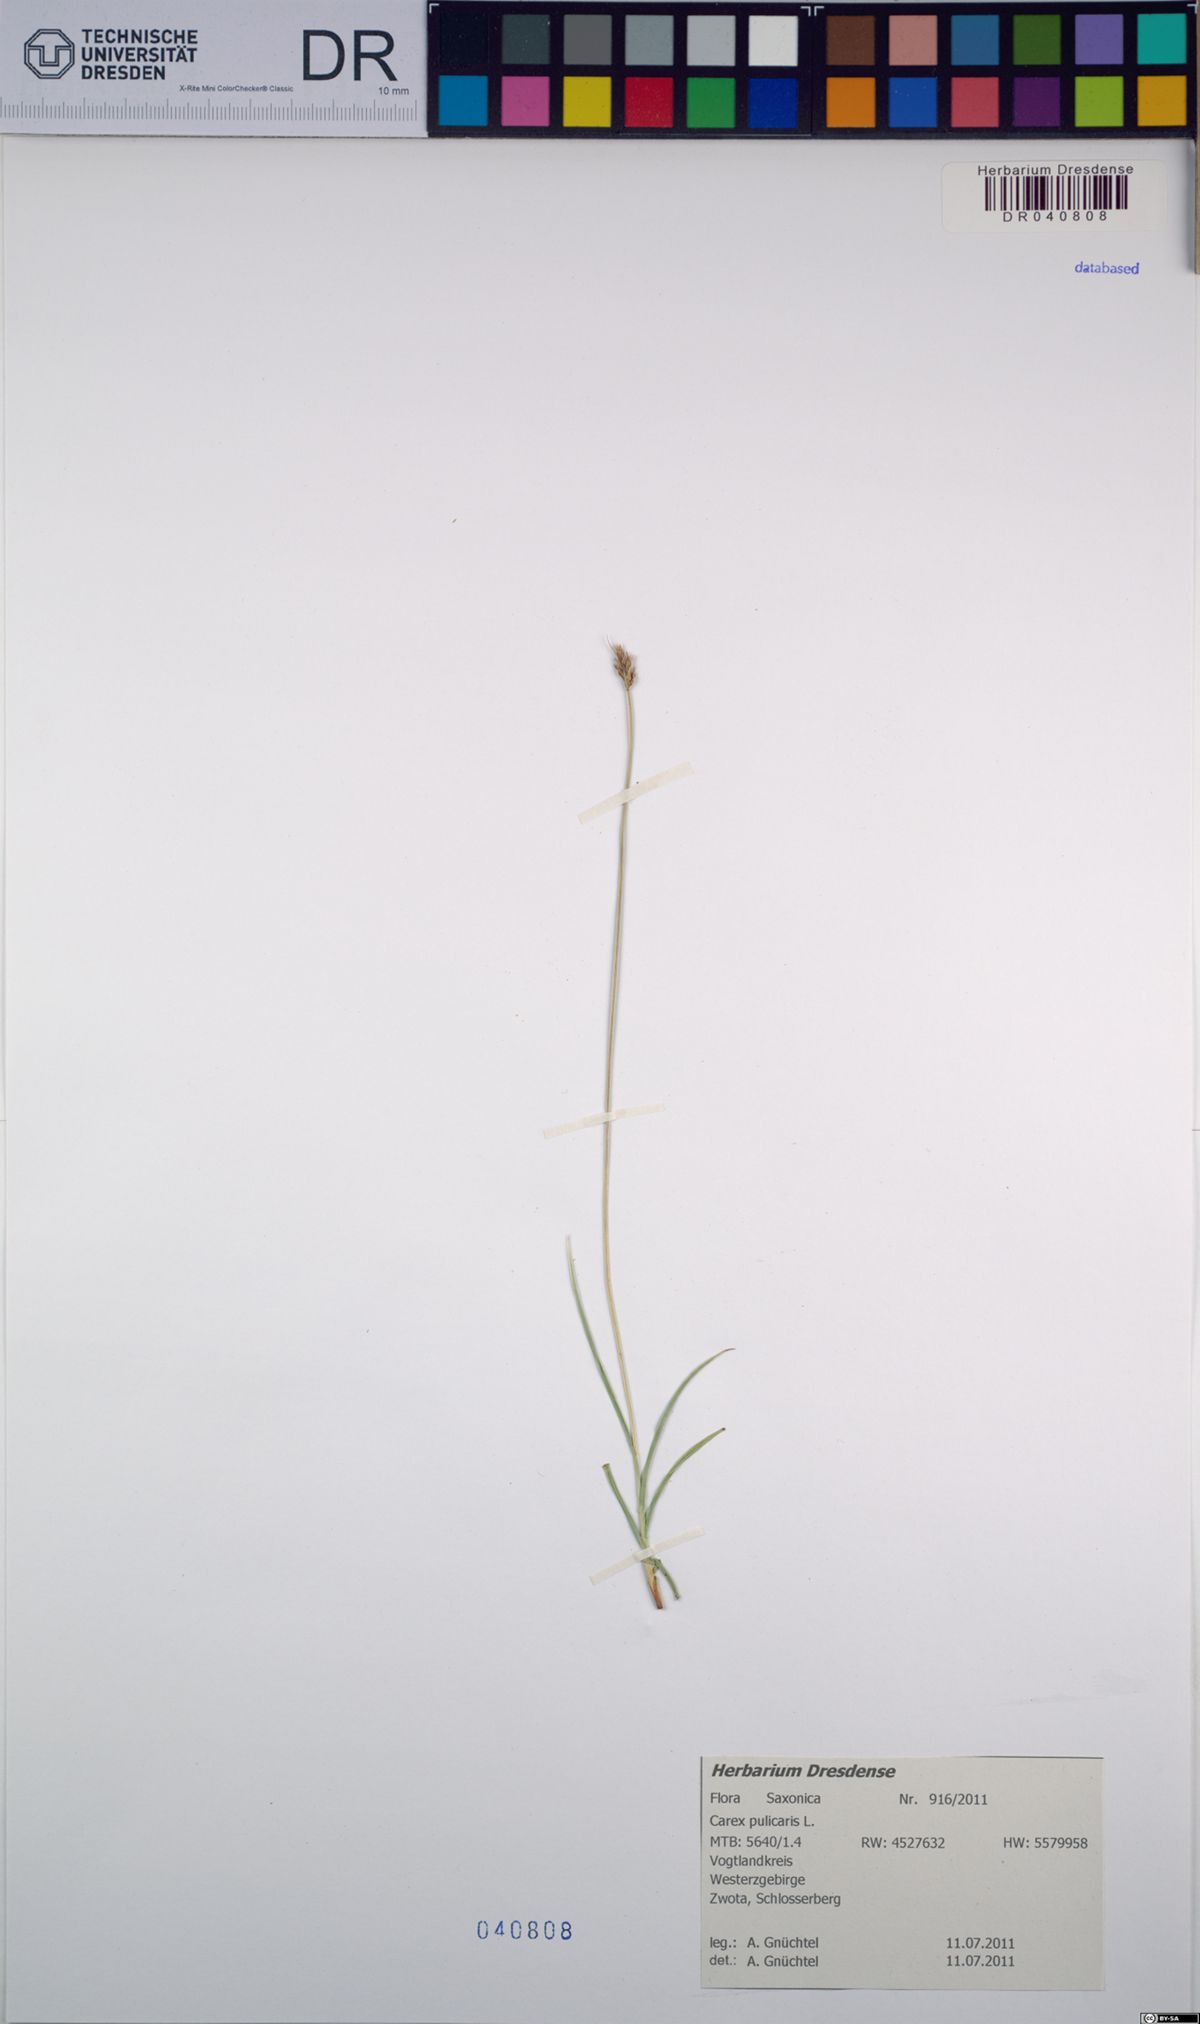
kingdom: Plantae
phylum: Tracheophyta
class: Liliopsida
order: Poales
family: Cyperaceae
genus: Carex
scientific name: Carex pulicaris
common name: Flea sedge
